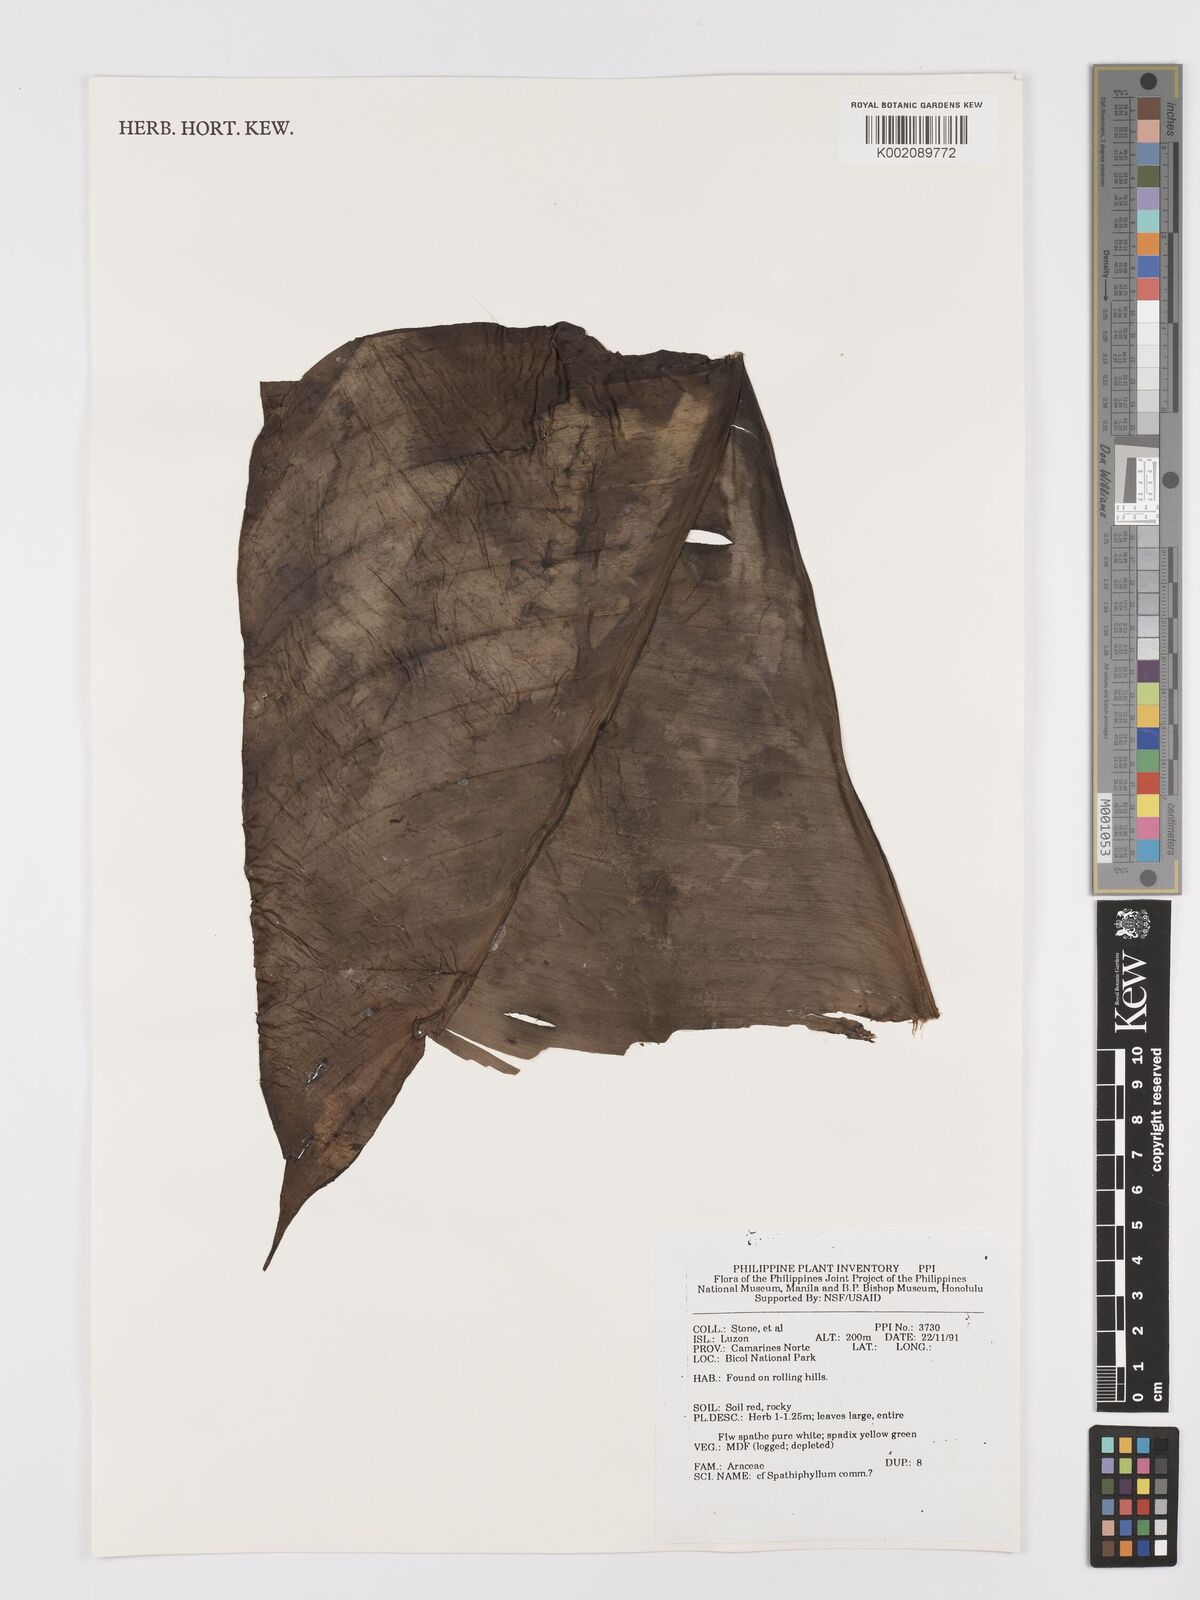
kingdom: Plantae
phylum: Tracheophyta
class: Liliopsida
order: Alismatales
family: Araceae
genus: Spathiphyllum
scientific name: Spathiphyllum commutatum
